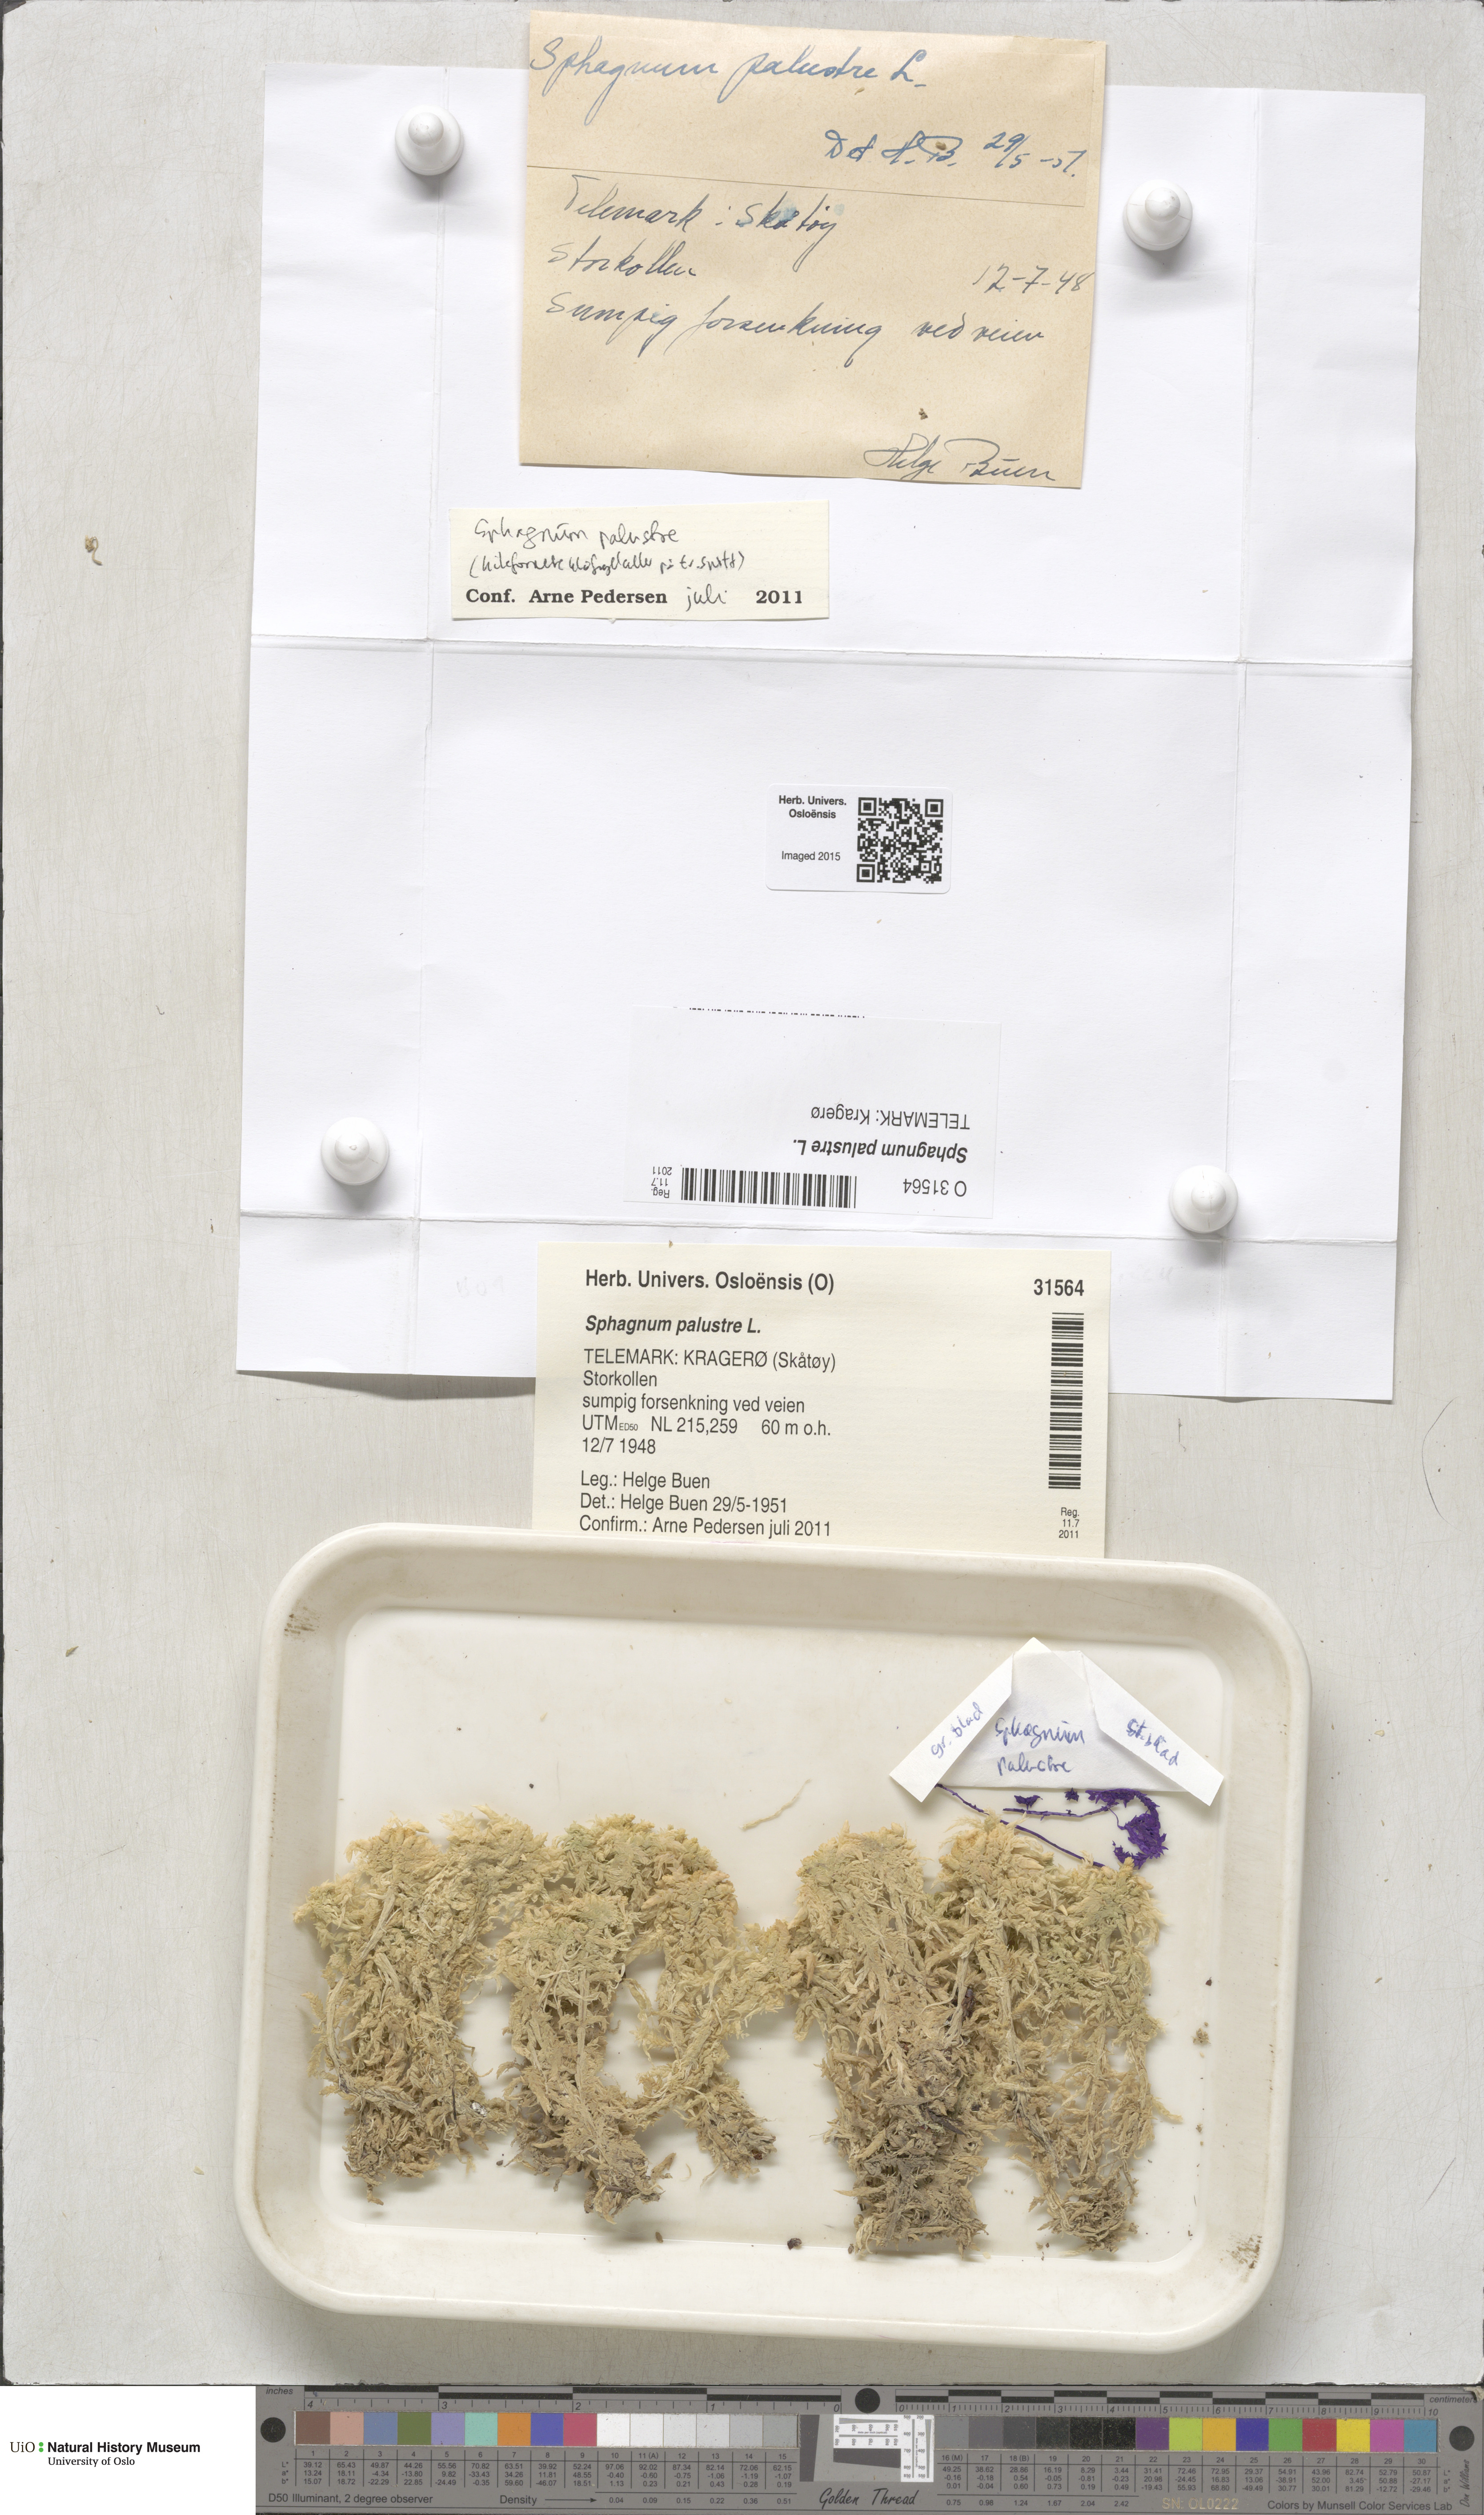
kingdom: Plantae
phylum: Bryophyta
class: Sphagnopsida
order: Sphagnales
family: Sphagnaceae
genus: Sphagnum
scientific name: Sphagnum palustre
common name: Blunt-leaved bog-moss
